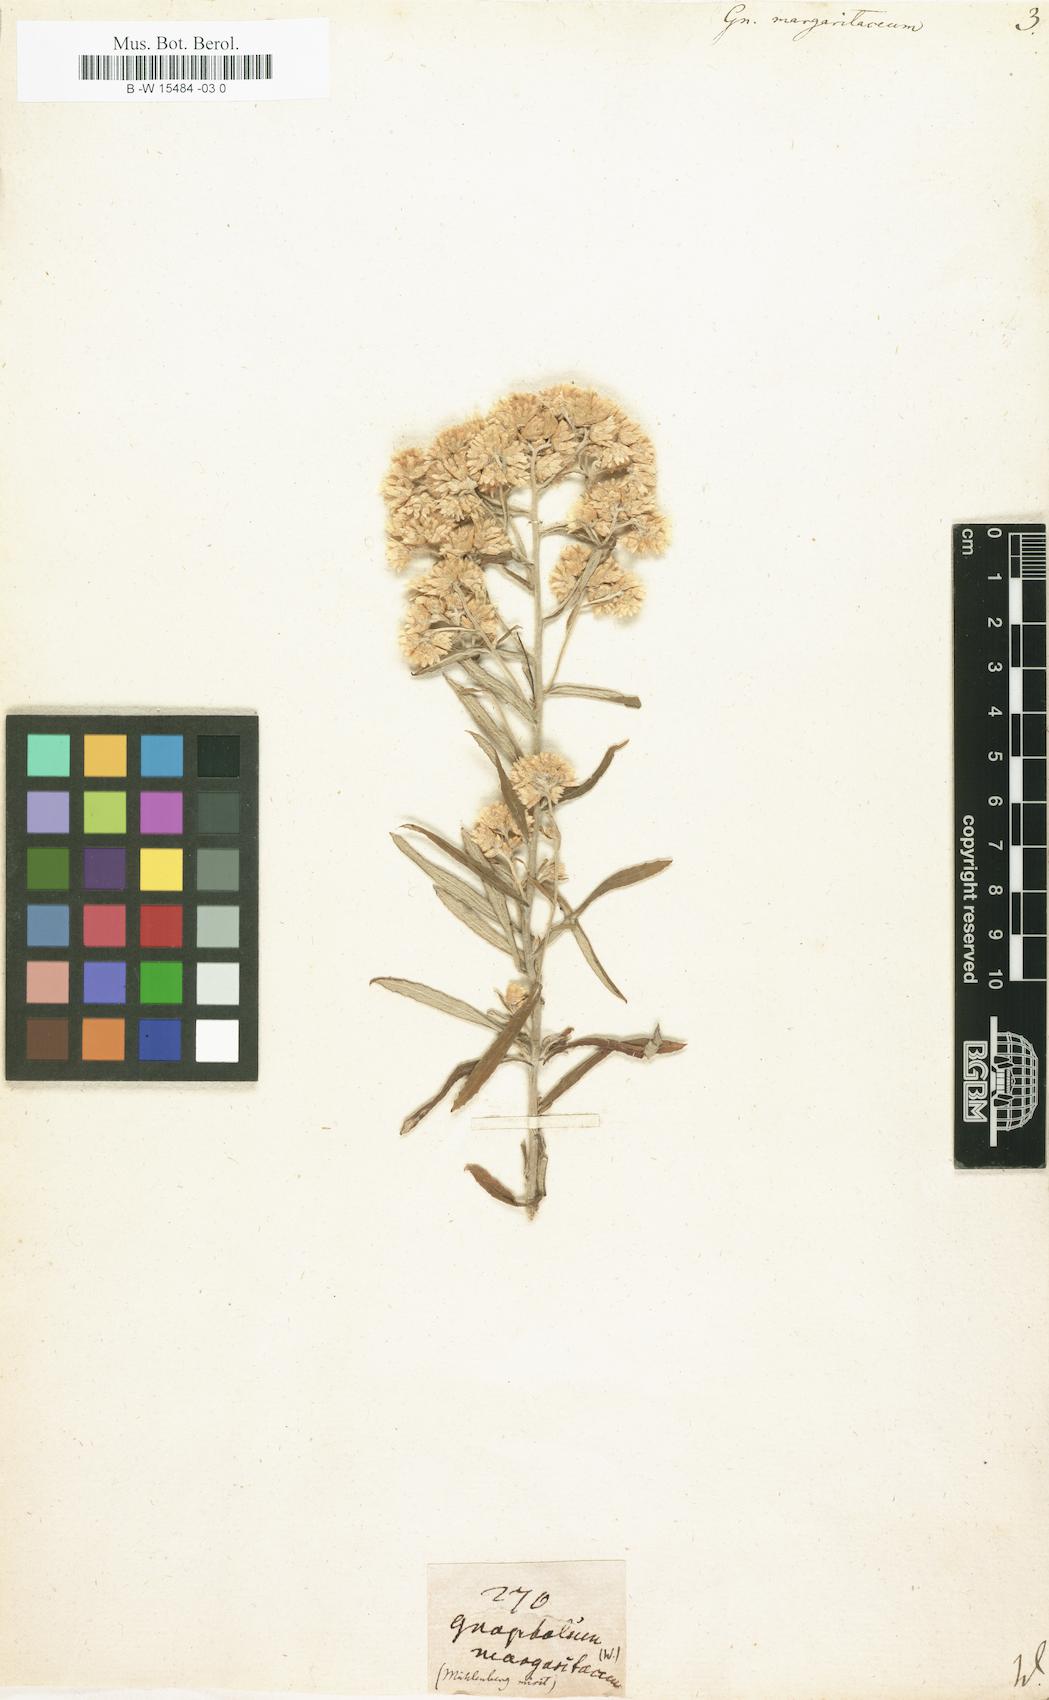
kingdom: Plantae
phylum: Tracheophyta
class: Magnoliopsida
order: Asterales
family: Asteraceae
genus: Anaphalis
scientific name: Anaphalis margaritacea
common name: Pearly everlasting
